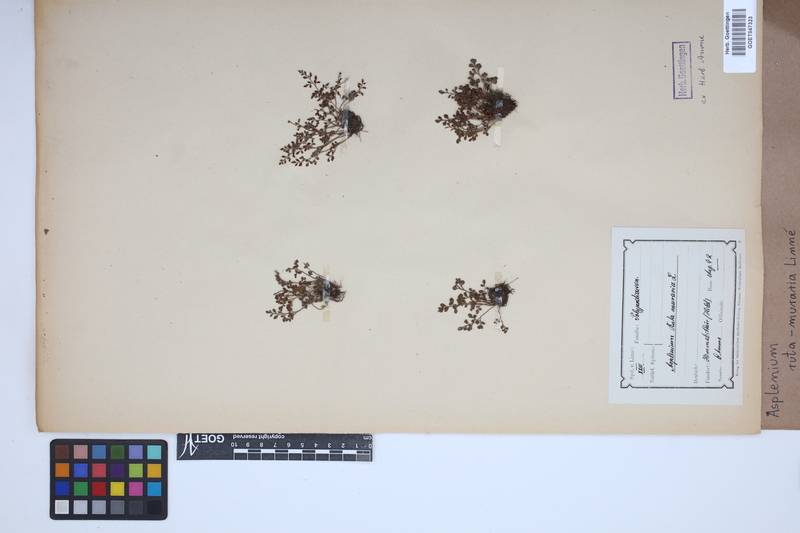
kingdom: Plantae
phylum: Tracheophyta
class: Polypodiopsida
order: Polypodiales
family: Aspleniaceae
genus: Asplenium
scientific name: Asplenium ruta-muraria
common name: Wall-rue
